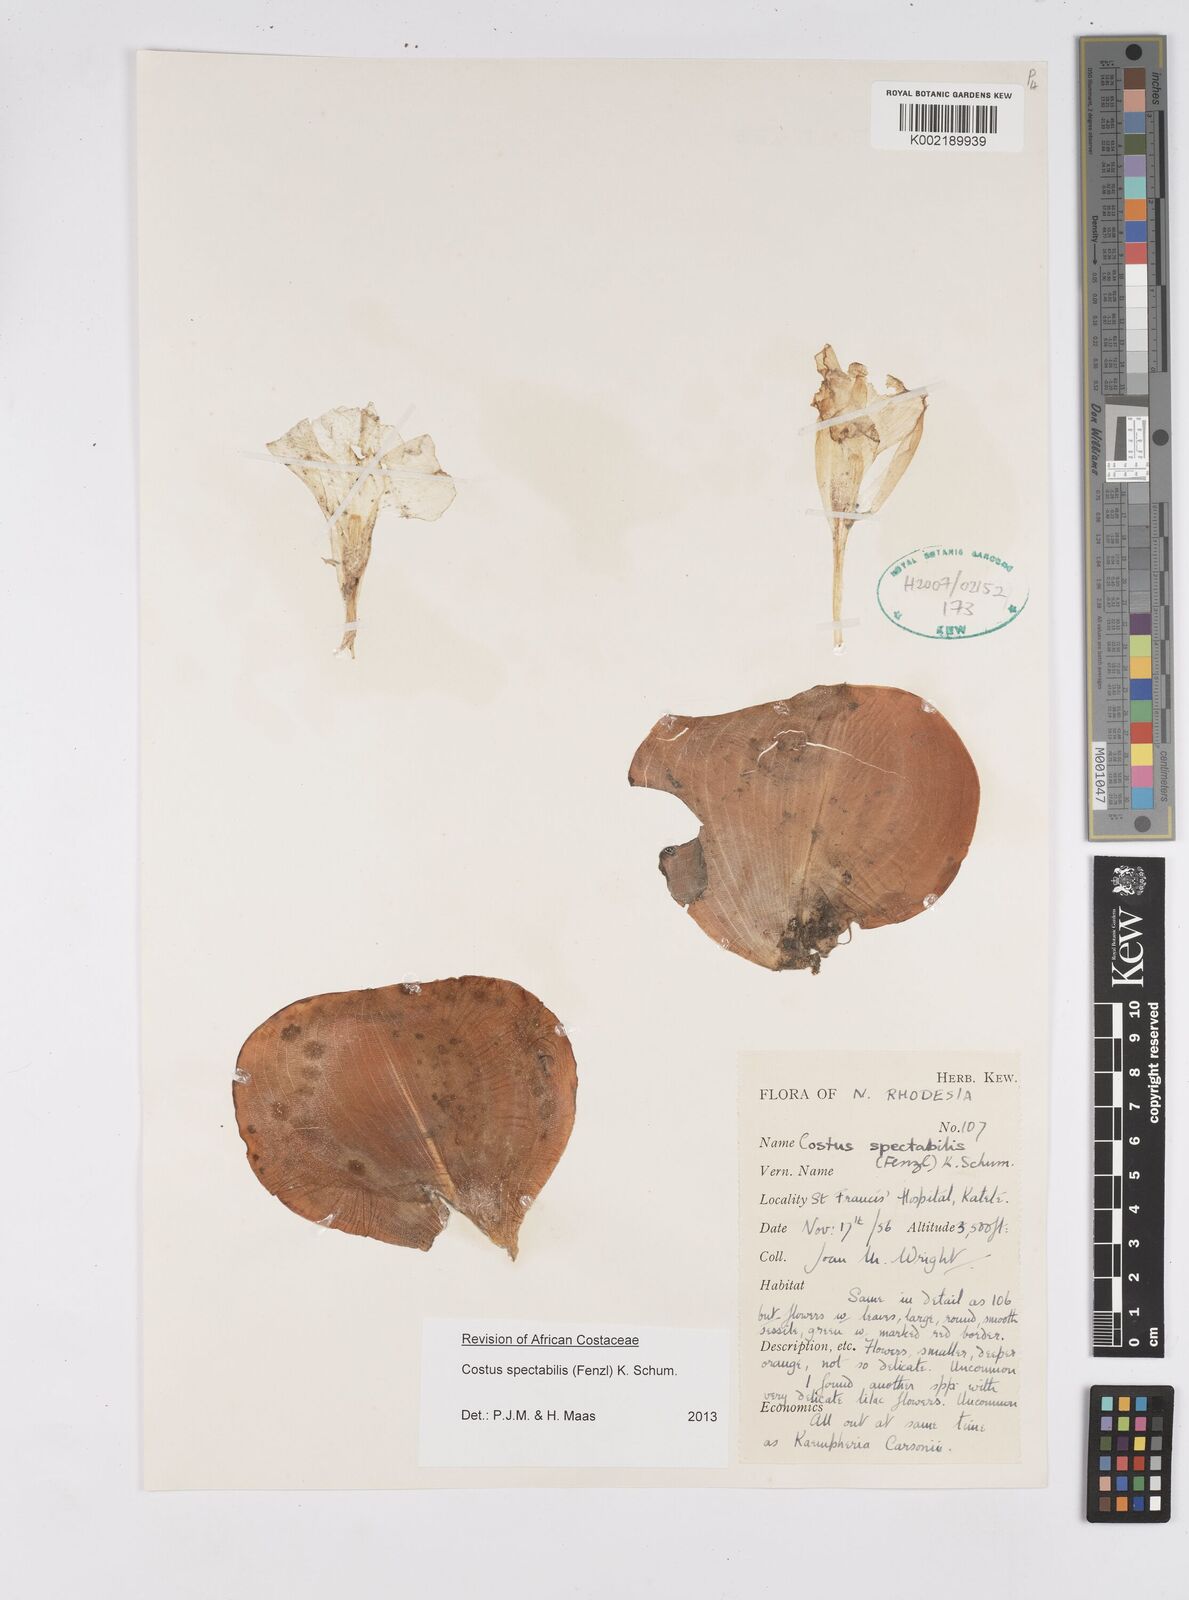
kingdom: Plantae
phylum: Tracheophyta
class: Liliopsida
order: Zingiberales
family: Costaceae
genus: Costus
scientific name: Costus spectabilis
